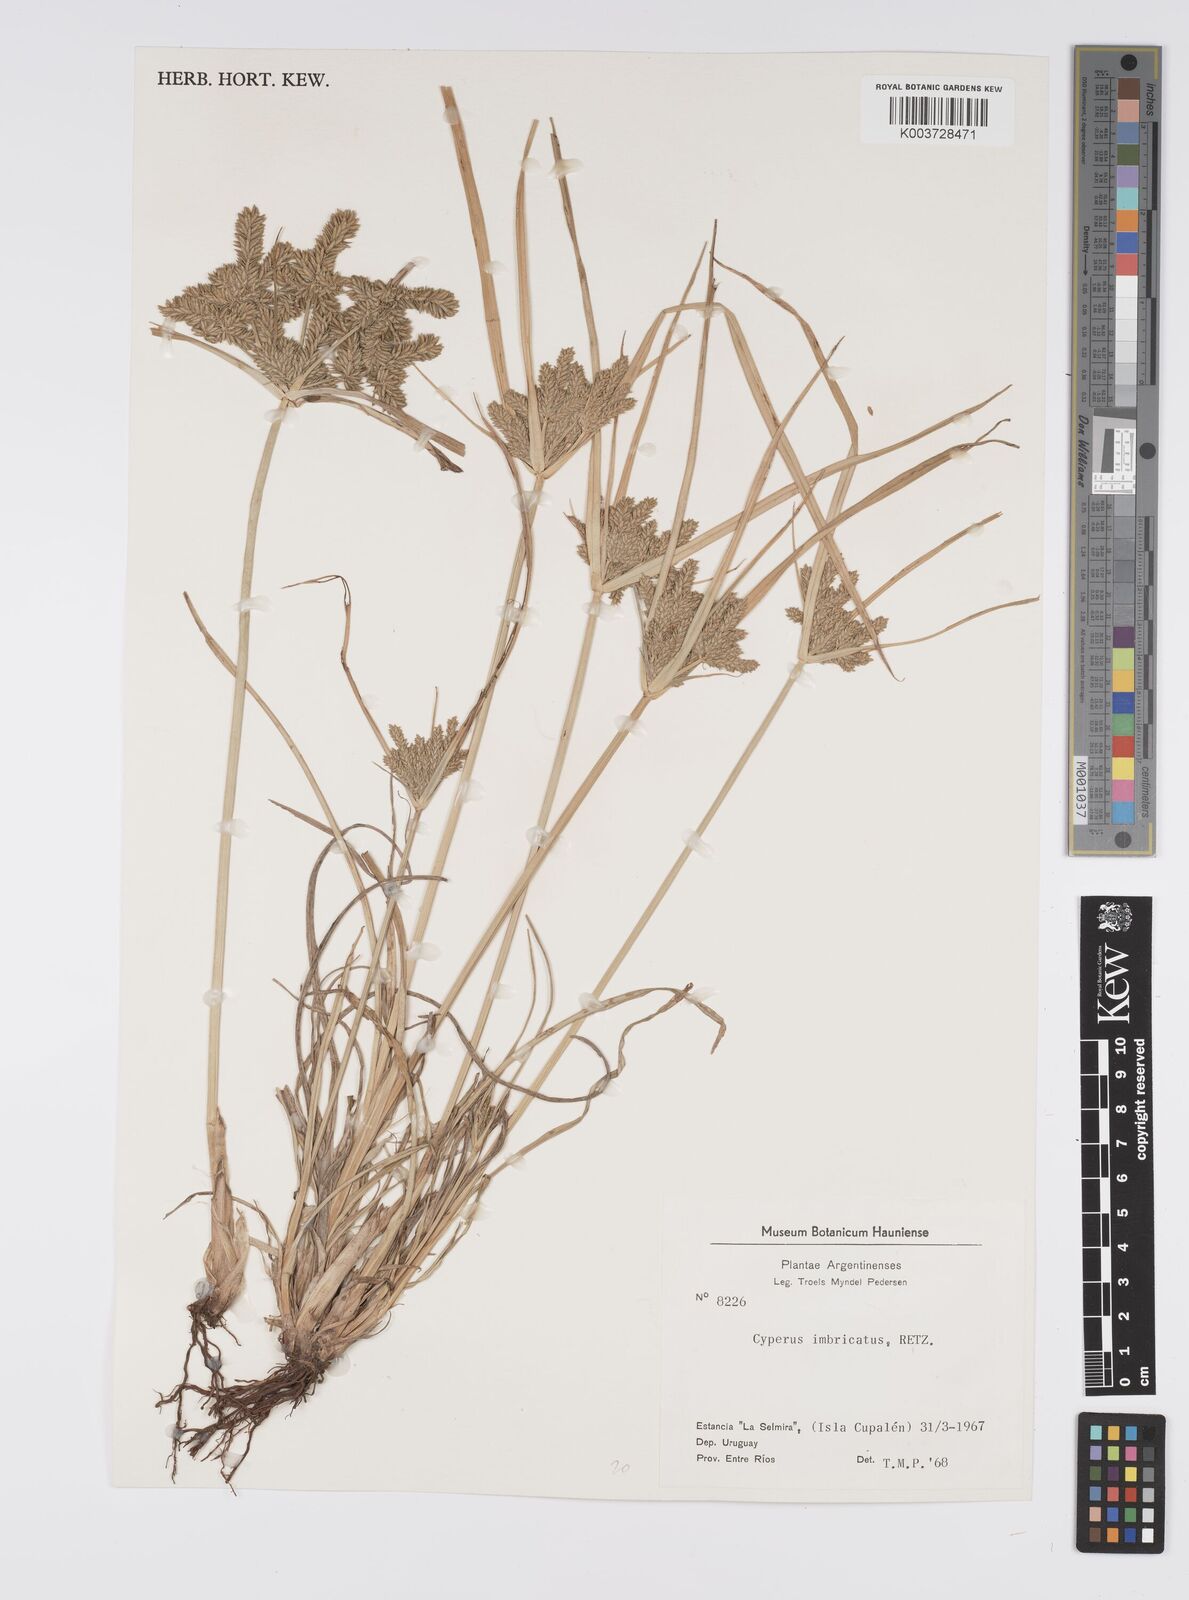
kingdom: Plantae
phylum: Tracheophyta
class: Liliopsida
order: Poales
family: Cyperaceae
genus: Cyperus
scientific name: Cyperus imbricatus
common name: Shingle flatsedge
